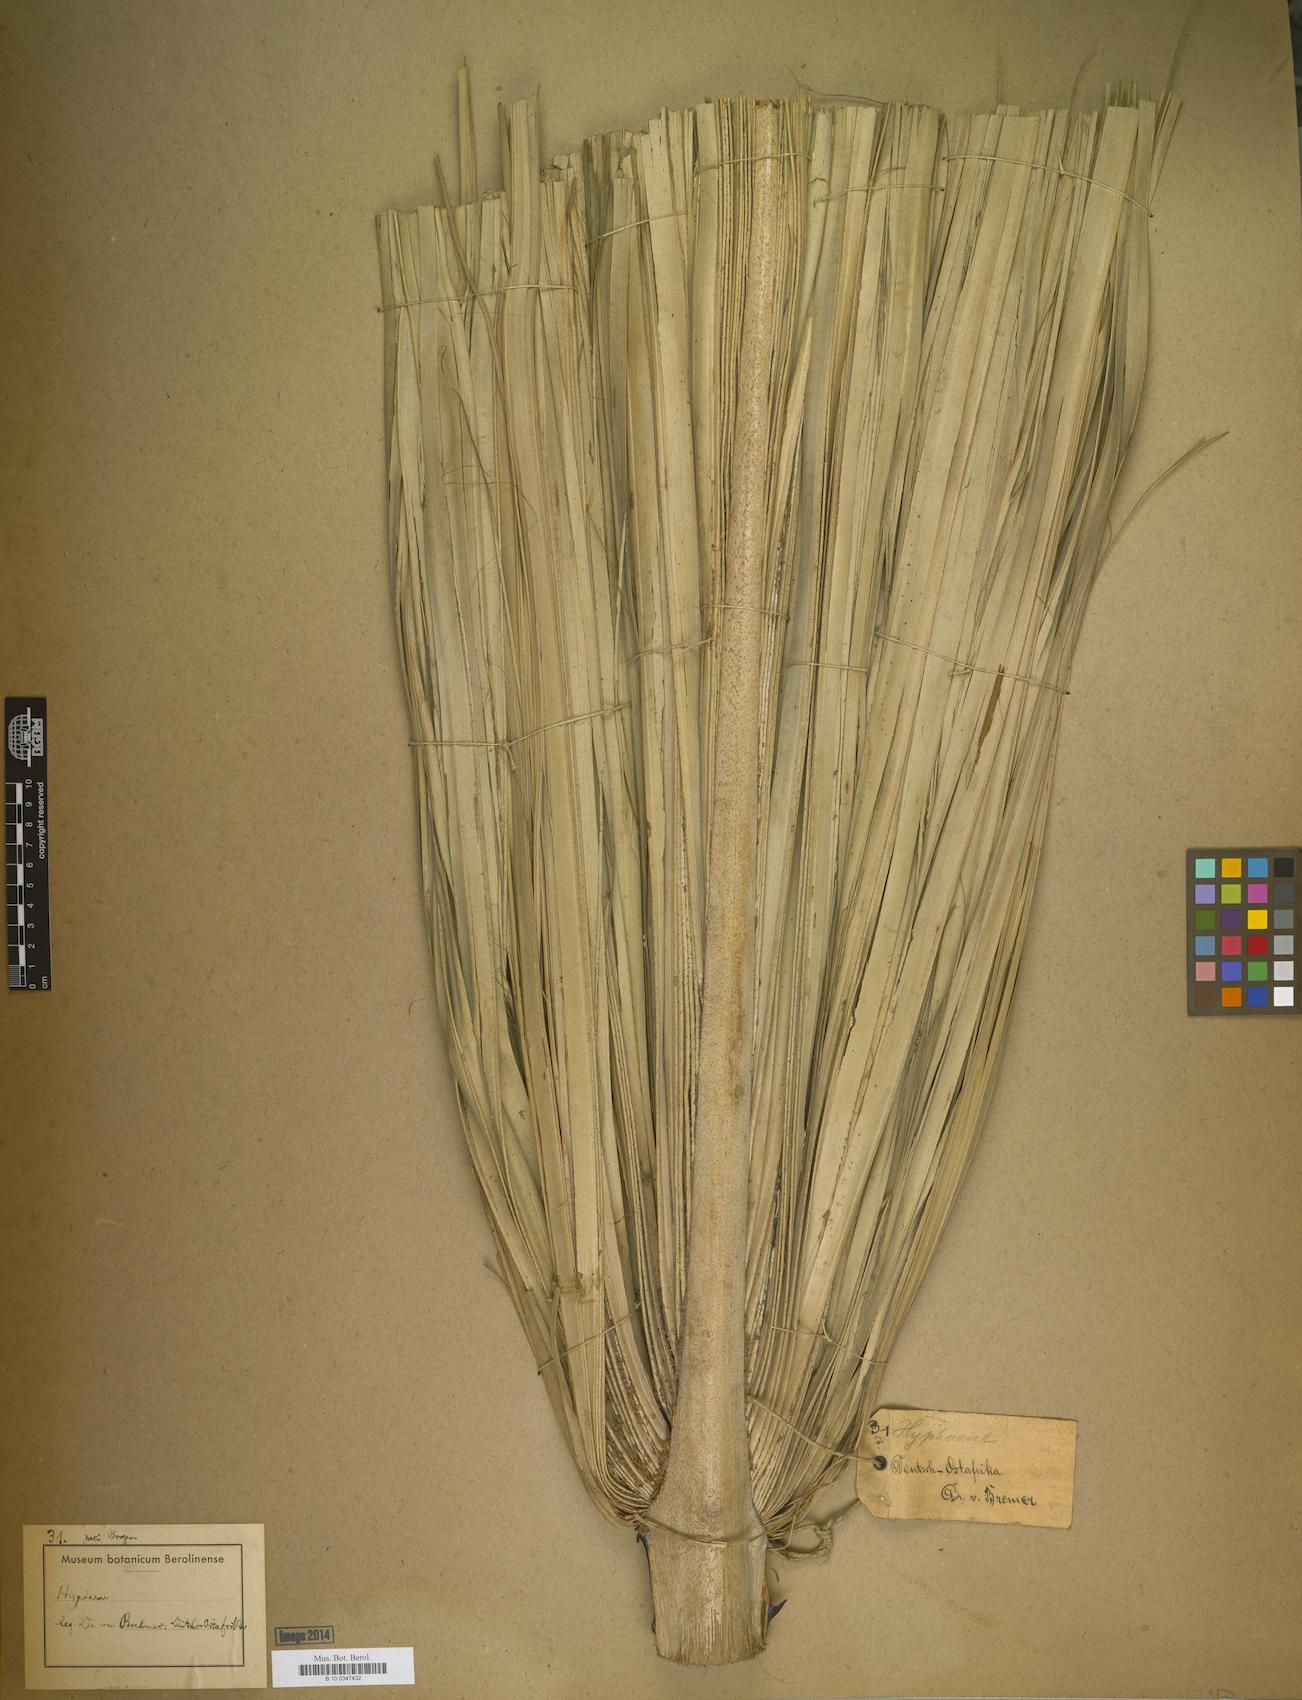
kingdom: Plantae
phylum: Tracheophyta
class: Liliopsida
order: Arecales
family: Arecaceae
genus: Hyphaene
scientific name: Hyphaene
